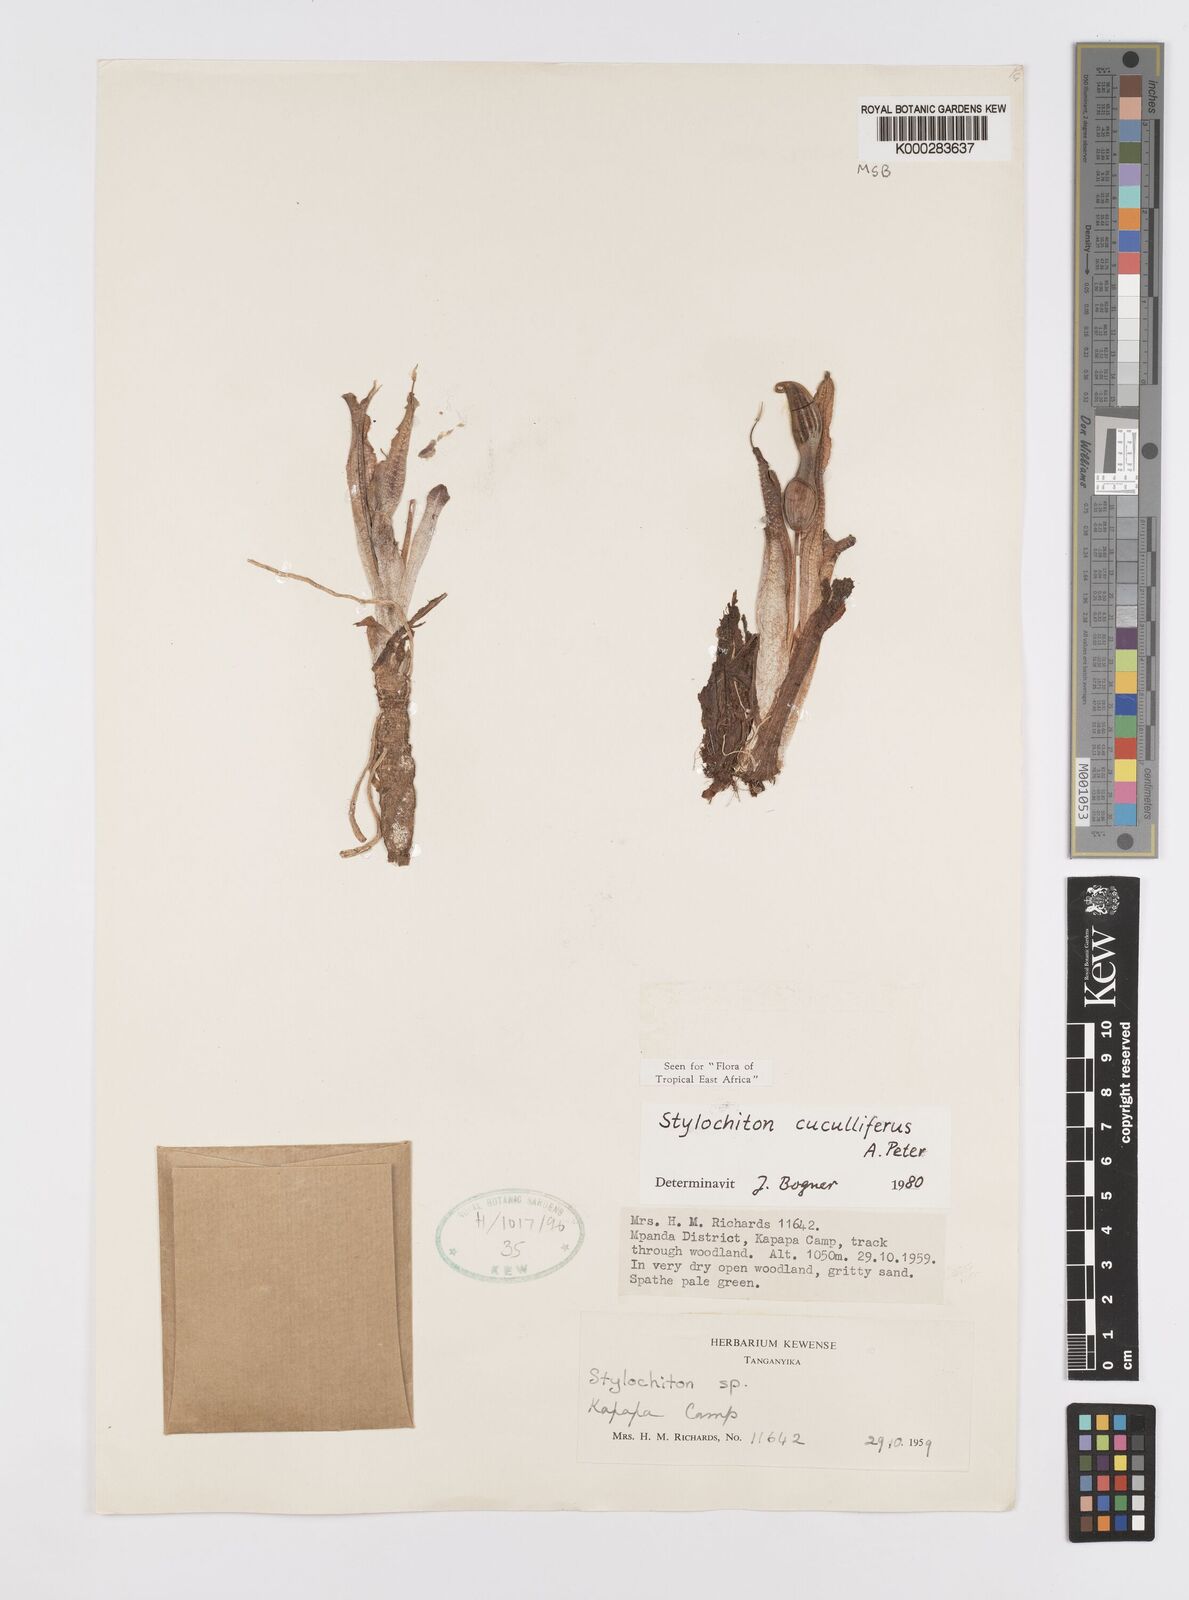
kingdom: Plantae
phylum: Tracheophyta
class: Liliopsida
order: Alismatales
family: Araceae
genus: Stylochaeton
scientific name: Stylochaeton cuculliferum
